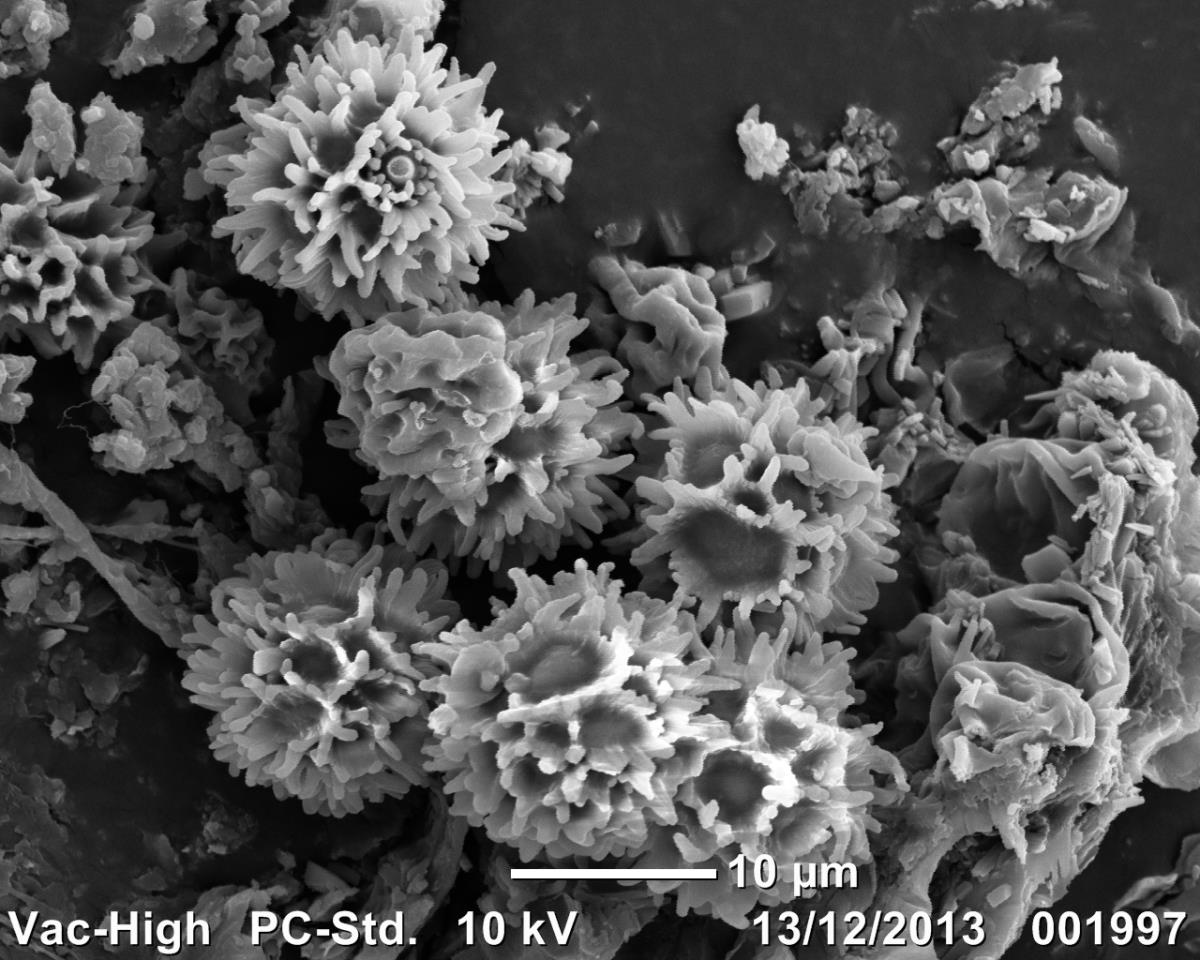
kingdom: Fungi
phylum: Basidiomycota
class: Agaricomycetes
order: Russulales
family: Russulaceae
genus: Russula
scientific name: Russula osphranticarpa
